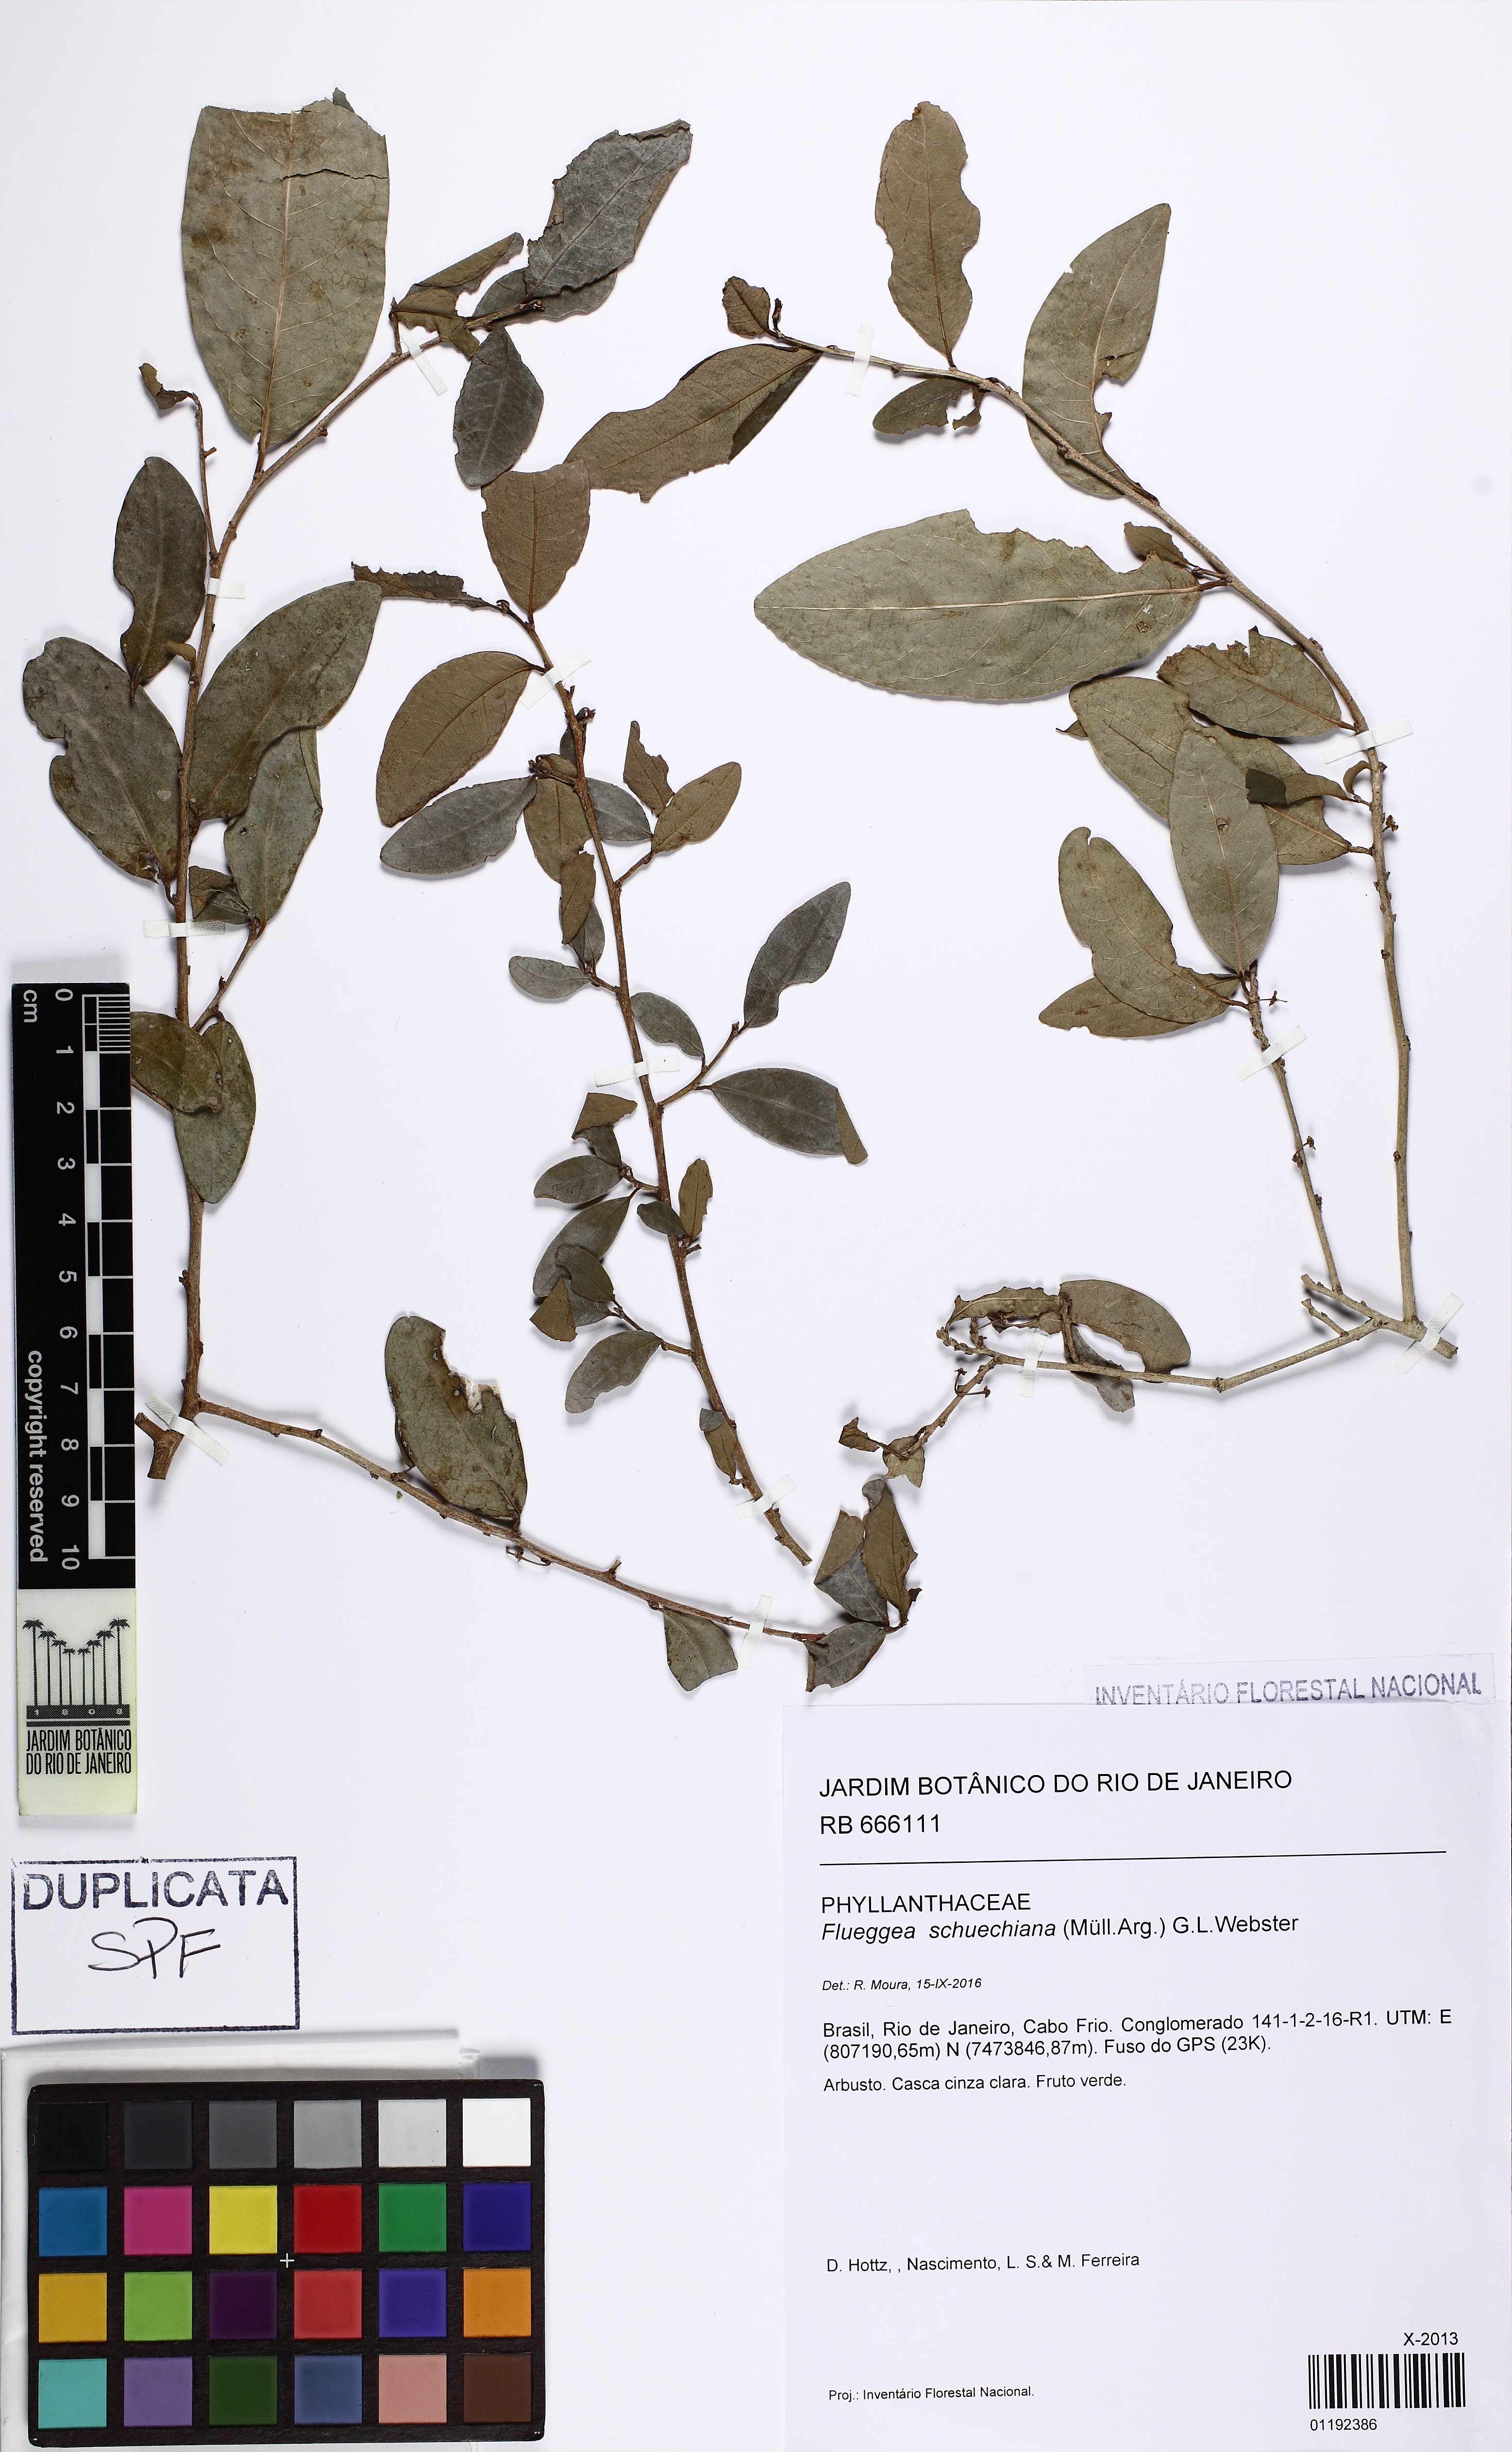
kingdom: Plantae
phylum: Tracheophyta
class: Magnoliopsida
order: Malpighiales
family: Phyllanthaceae
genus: Flueggea
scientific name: Flueggea schuechiana
